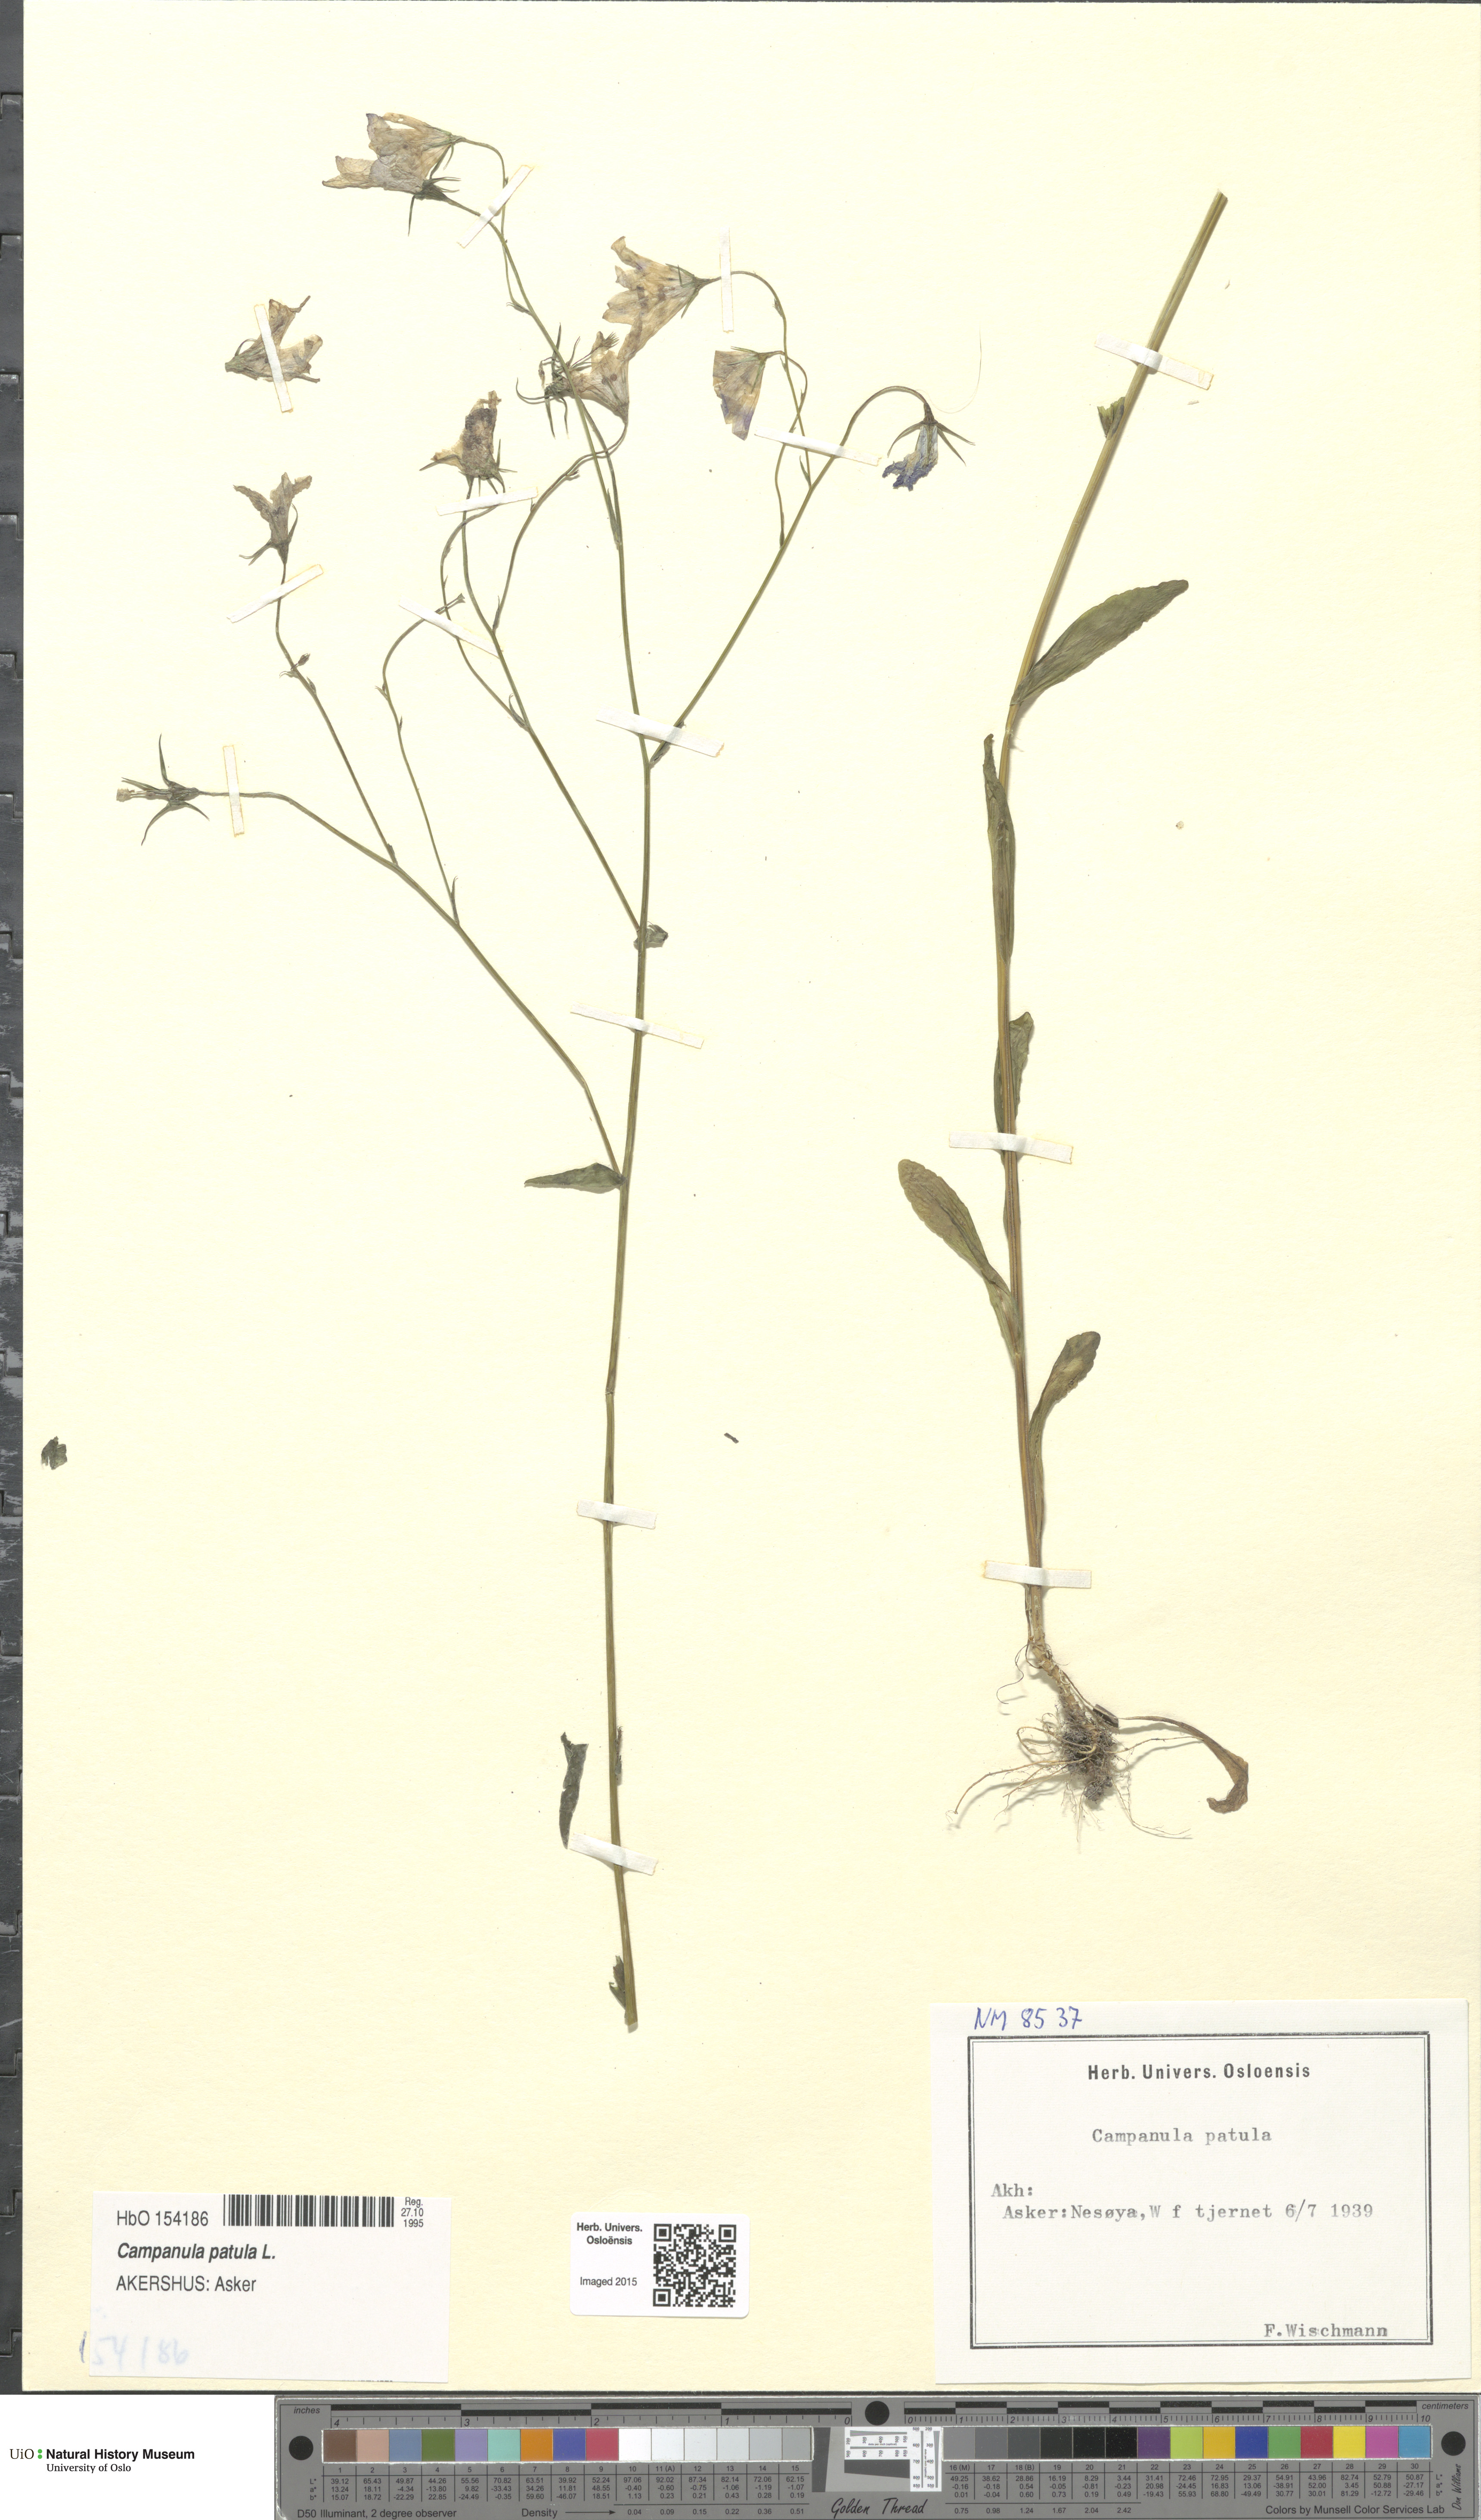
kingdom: Plantae
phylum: Tracheophyta
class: Magnoliopsida
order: Asterales
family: Campanulaceae
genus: Campanula
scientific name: Campanula patula
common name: Spreading bellflower
